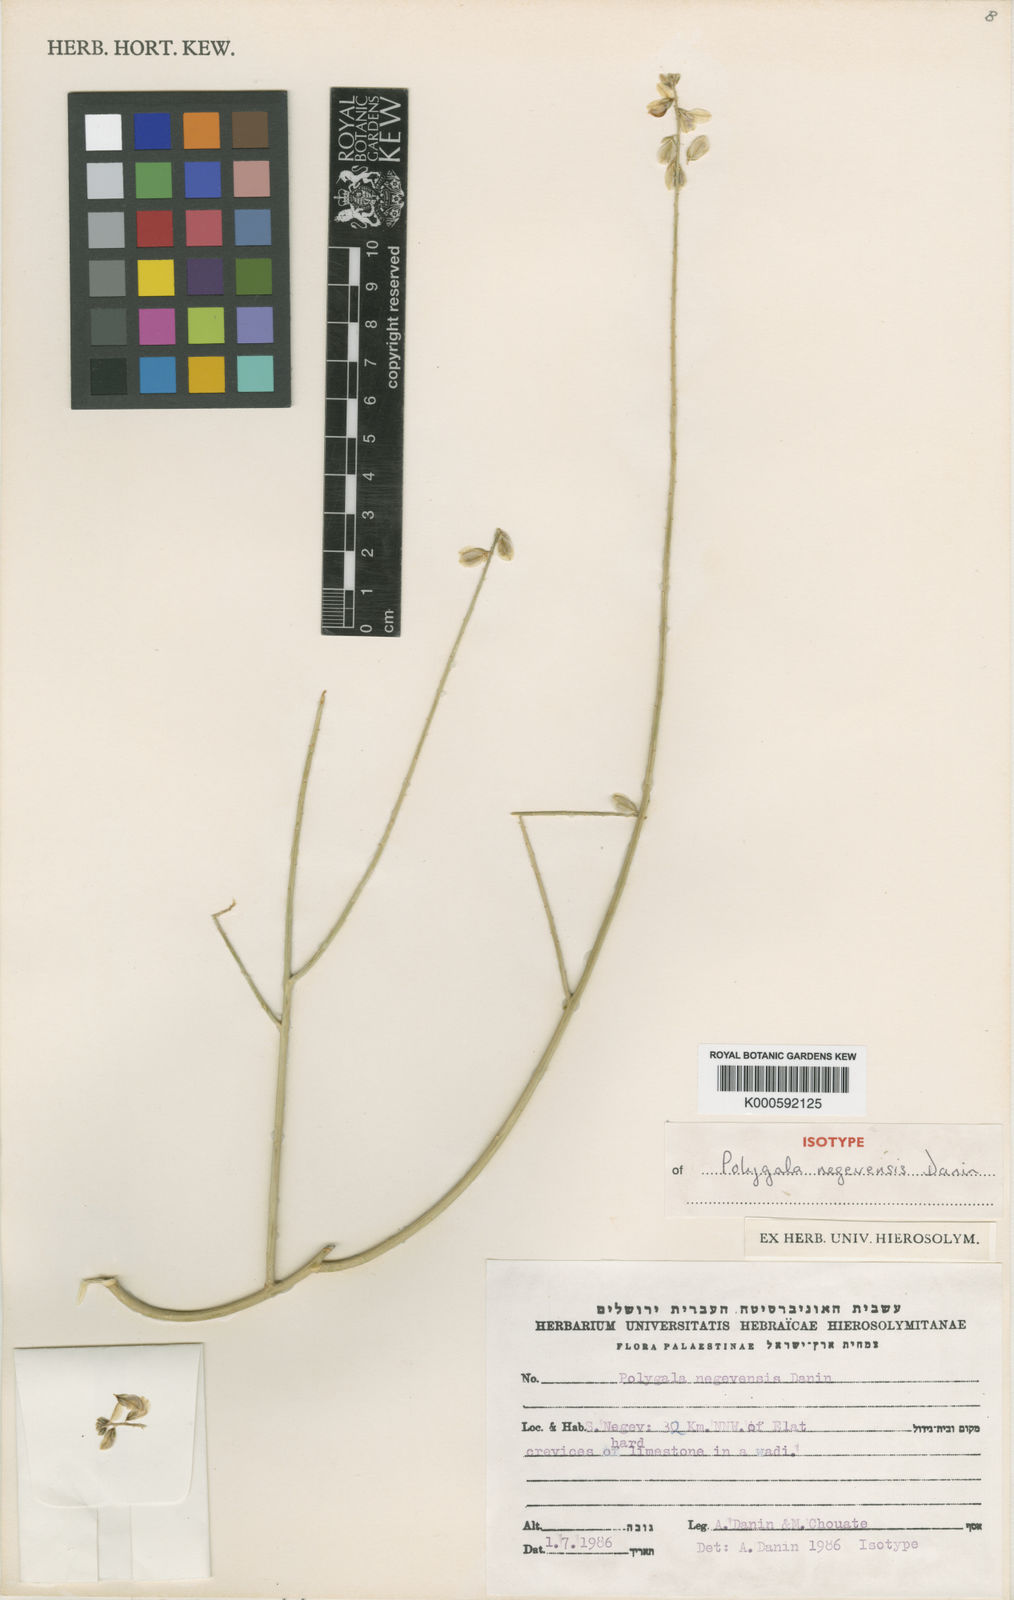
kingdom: Plantae
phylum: Tracheophyta
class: Magnoliopsida
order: Fabales
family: Polygalaceae
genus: Polygala
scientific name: Polygala sinaica
